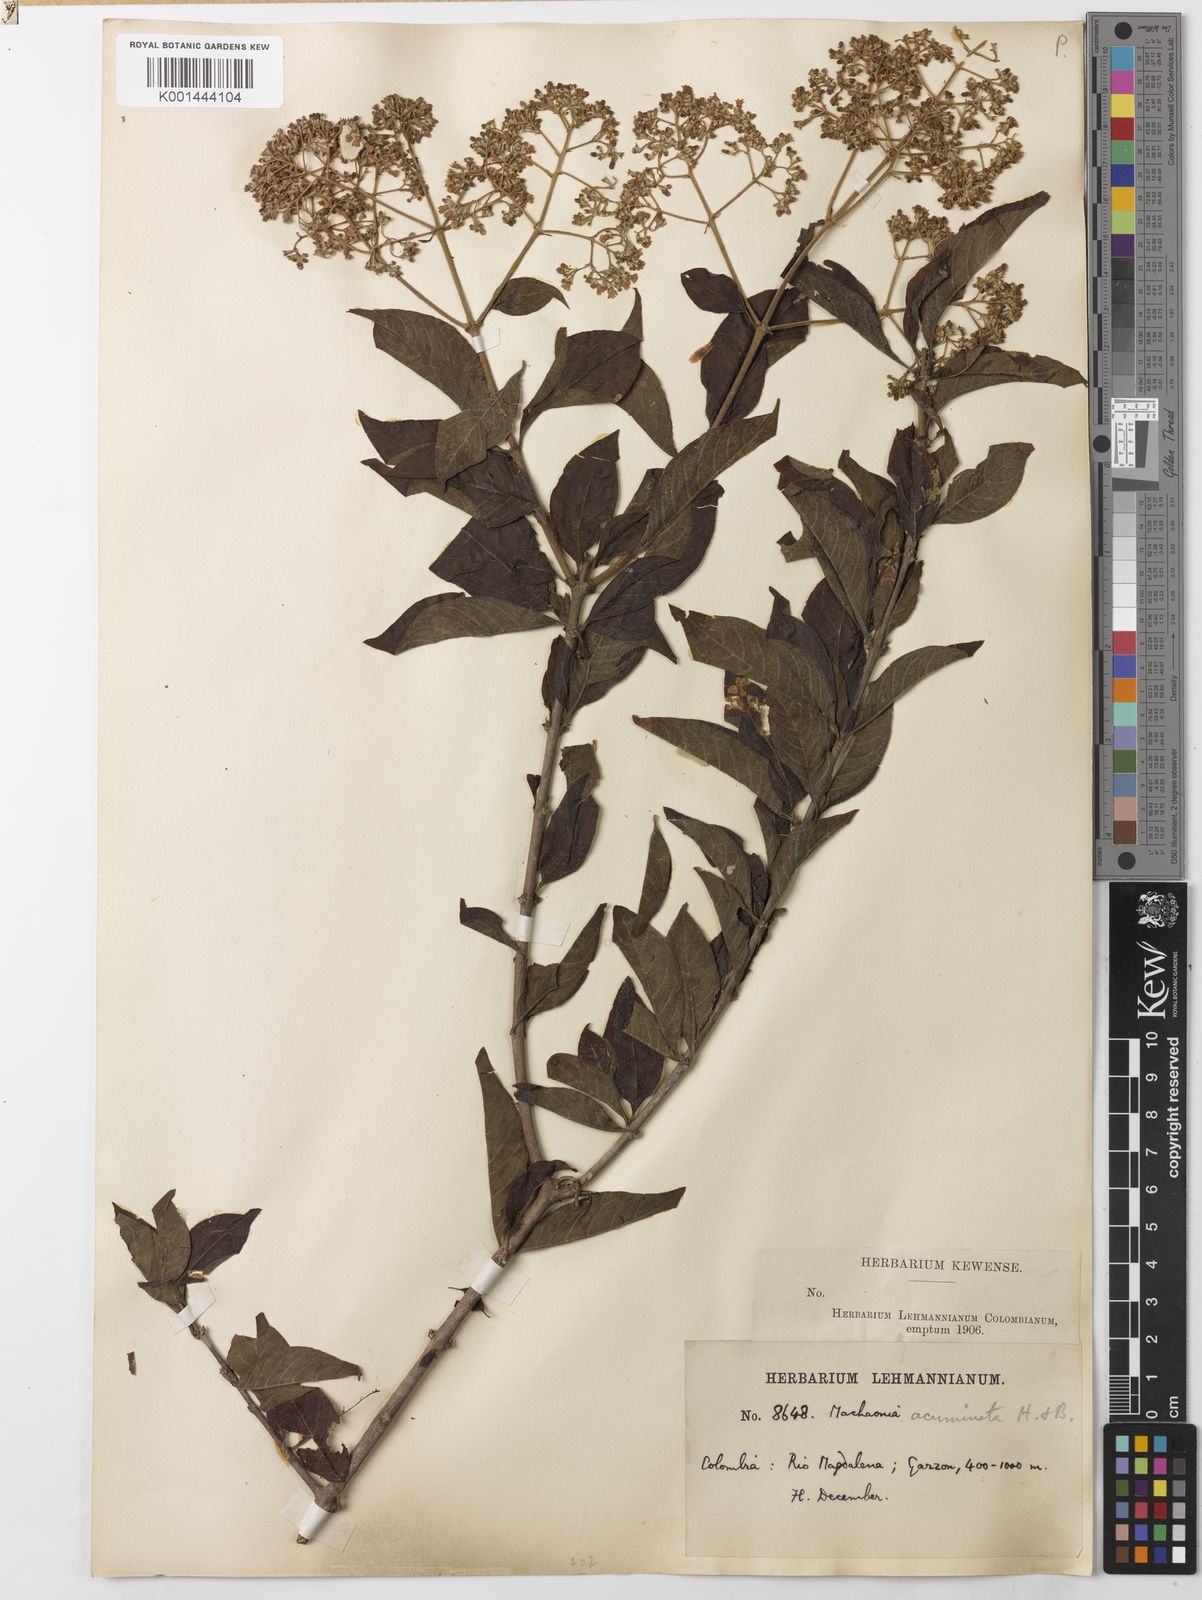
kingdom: Plantae
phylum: Tracheophyta
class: Magnoliopsida
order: Gentianales
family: Rubiaceae
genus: Machaonia
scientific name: Machaonia acuminata
